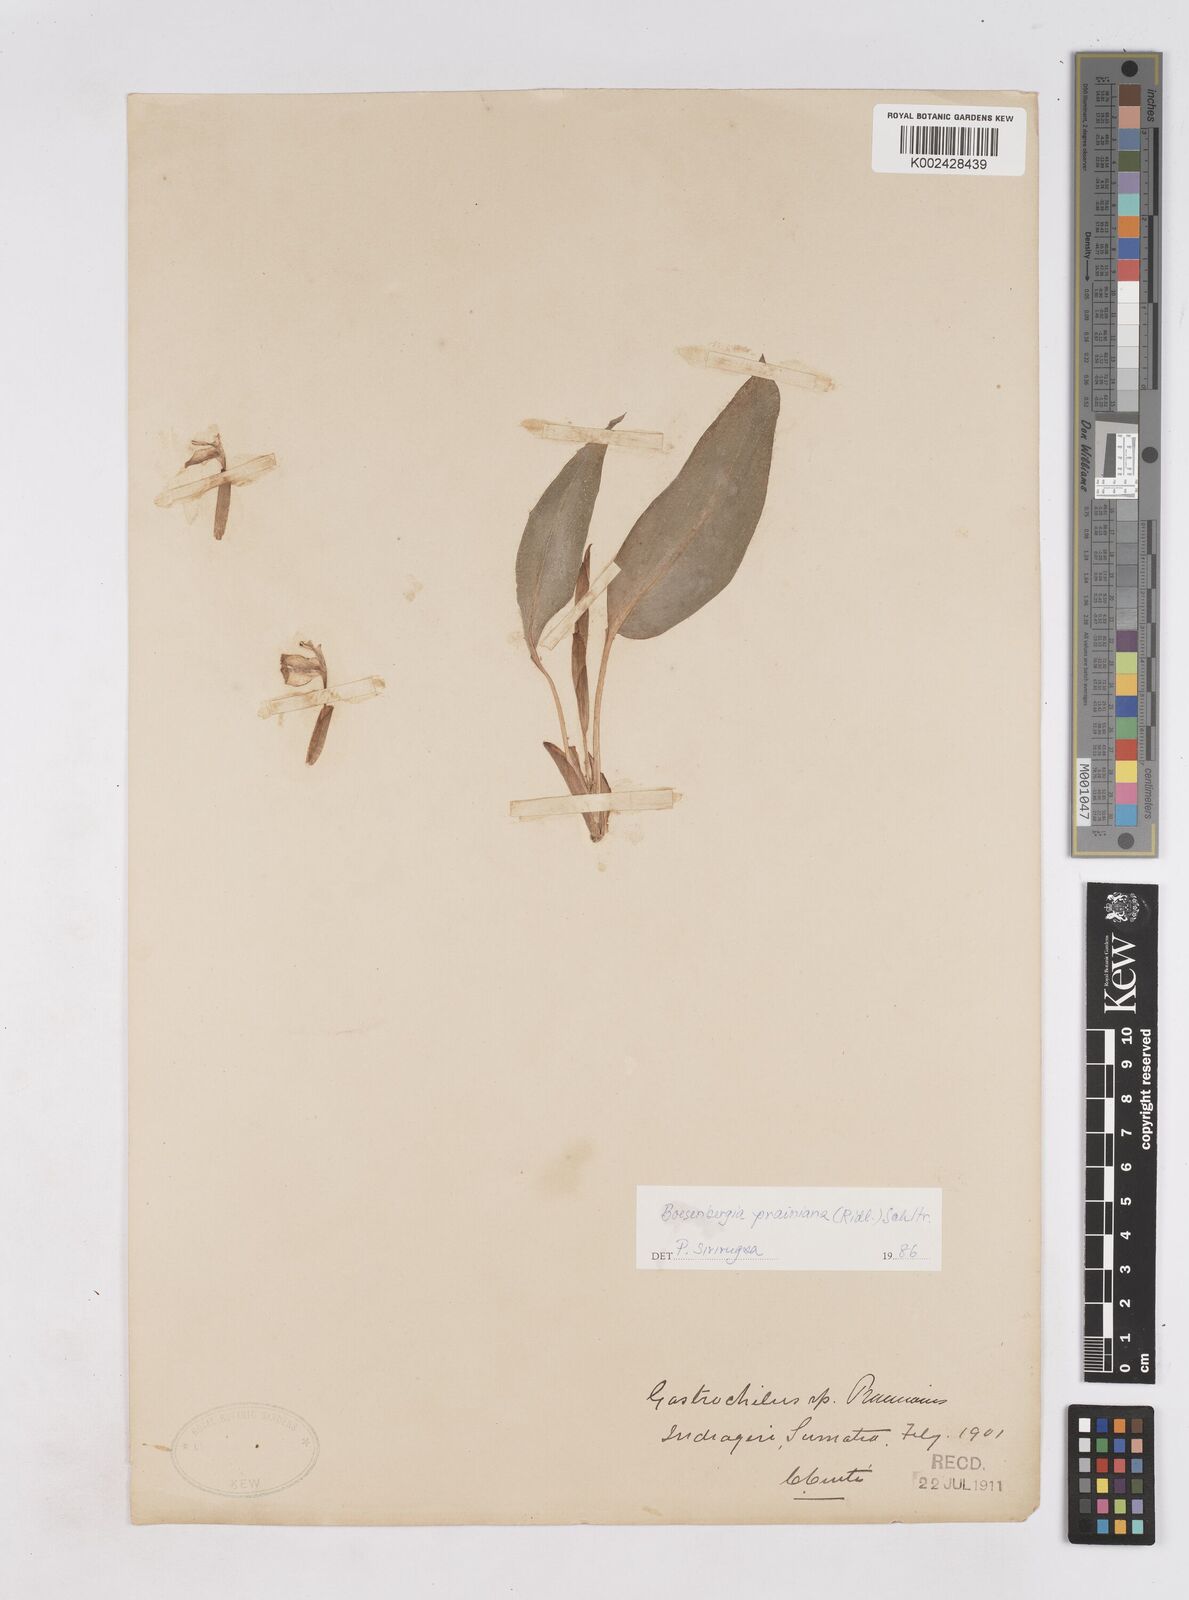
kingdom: Plantae
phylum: Tracheophyta
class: Liliopsida
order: Zingiberales
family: Zingiberaceae
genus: Boesenbergia
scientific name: Boesenbergia prainiana
